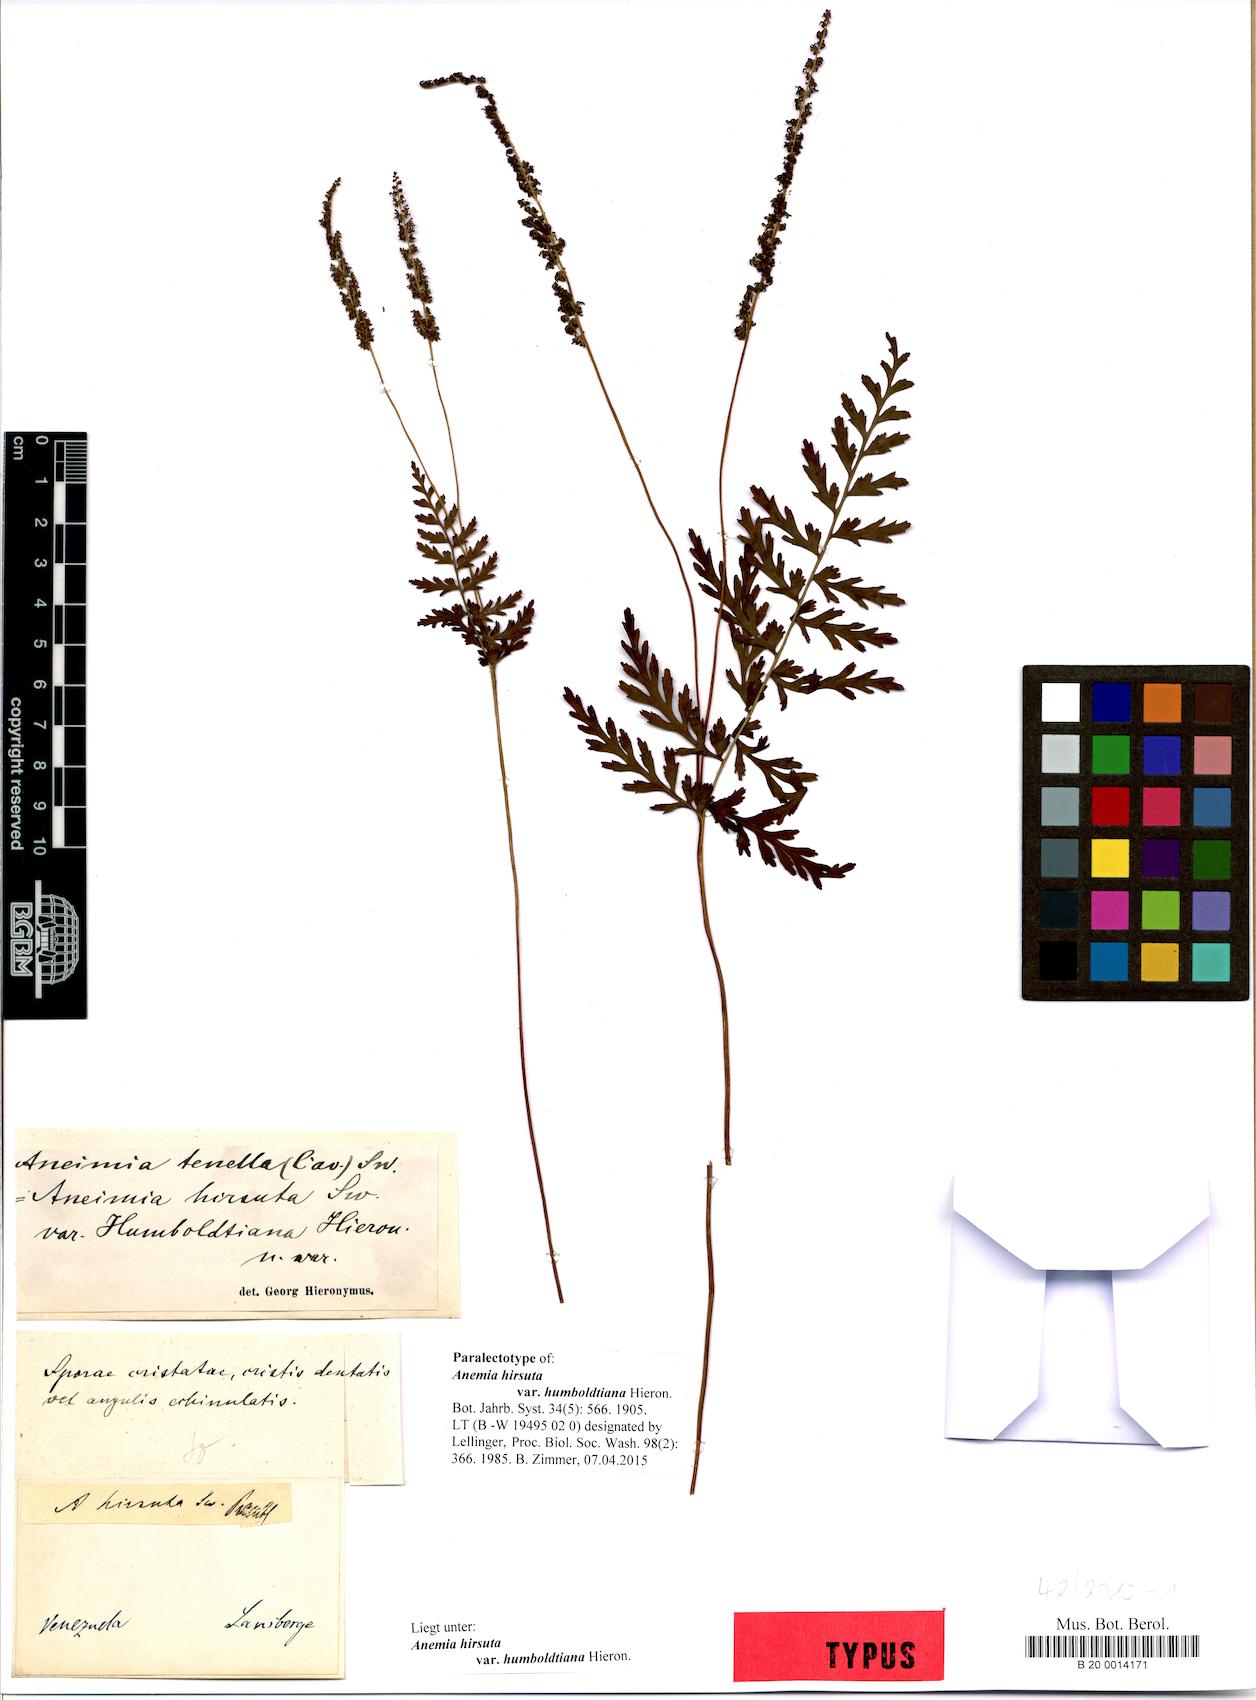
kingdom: Plantae
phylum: Tracheophyta
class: Polypodiopsida
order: Schizaeales
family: Anemiaceae
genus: Anemia
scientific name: Anemia hirsuta
